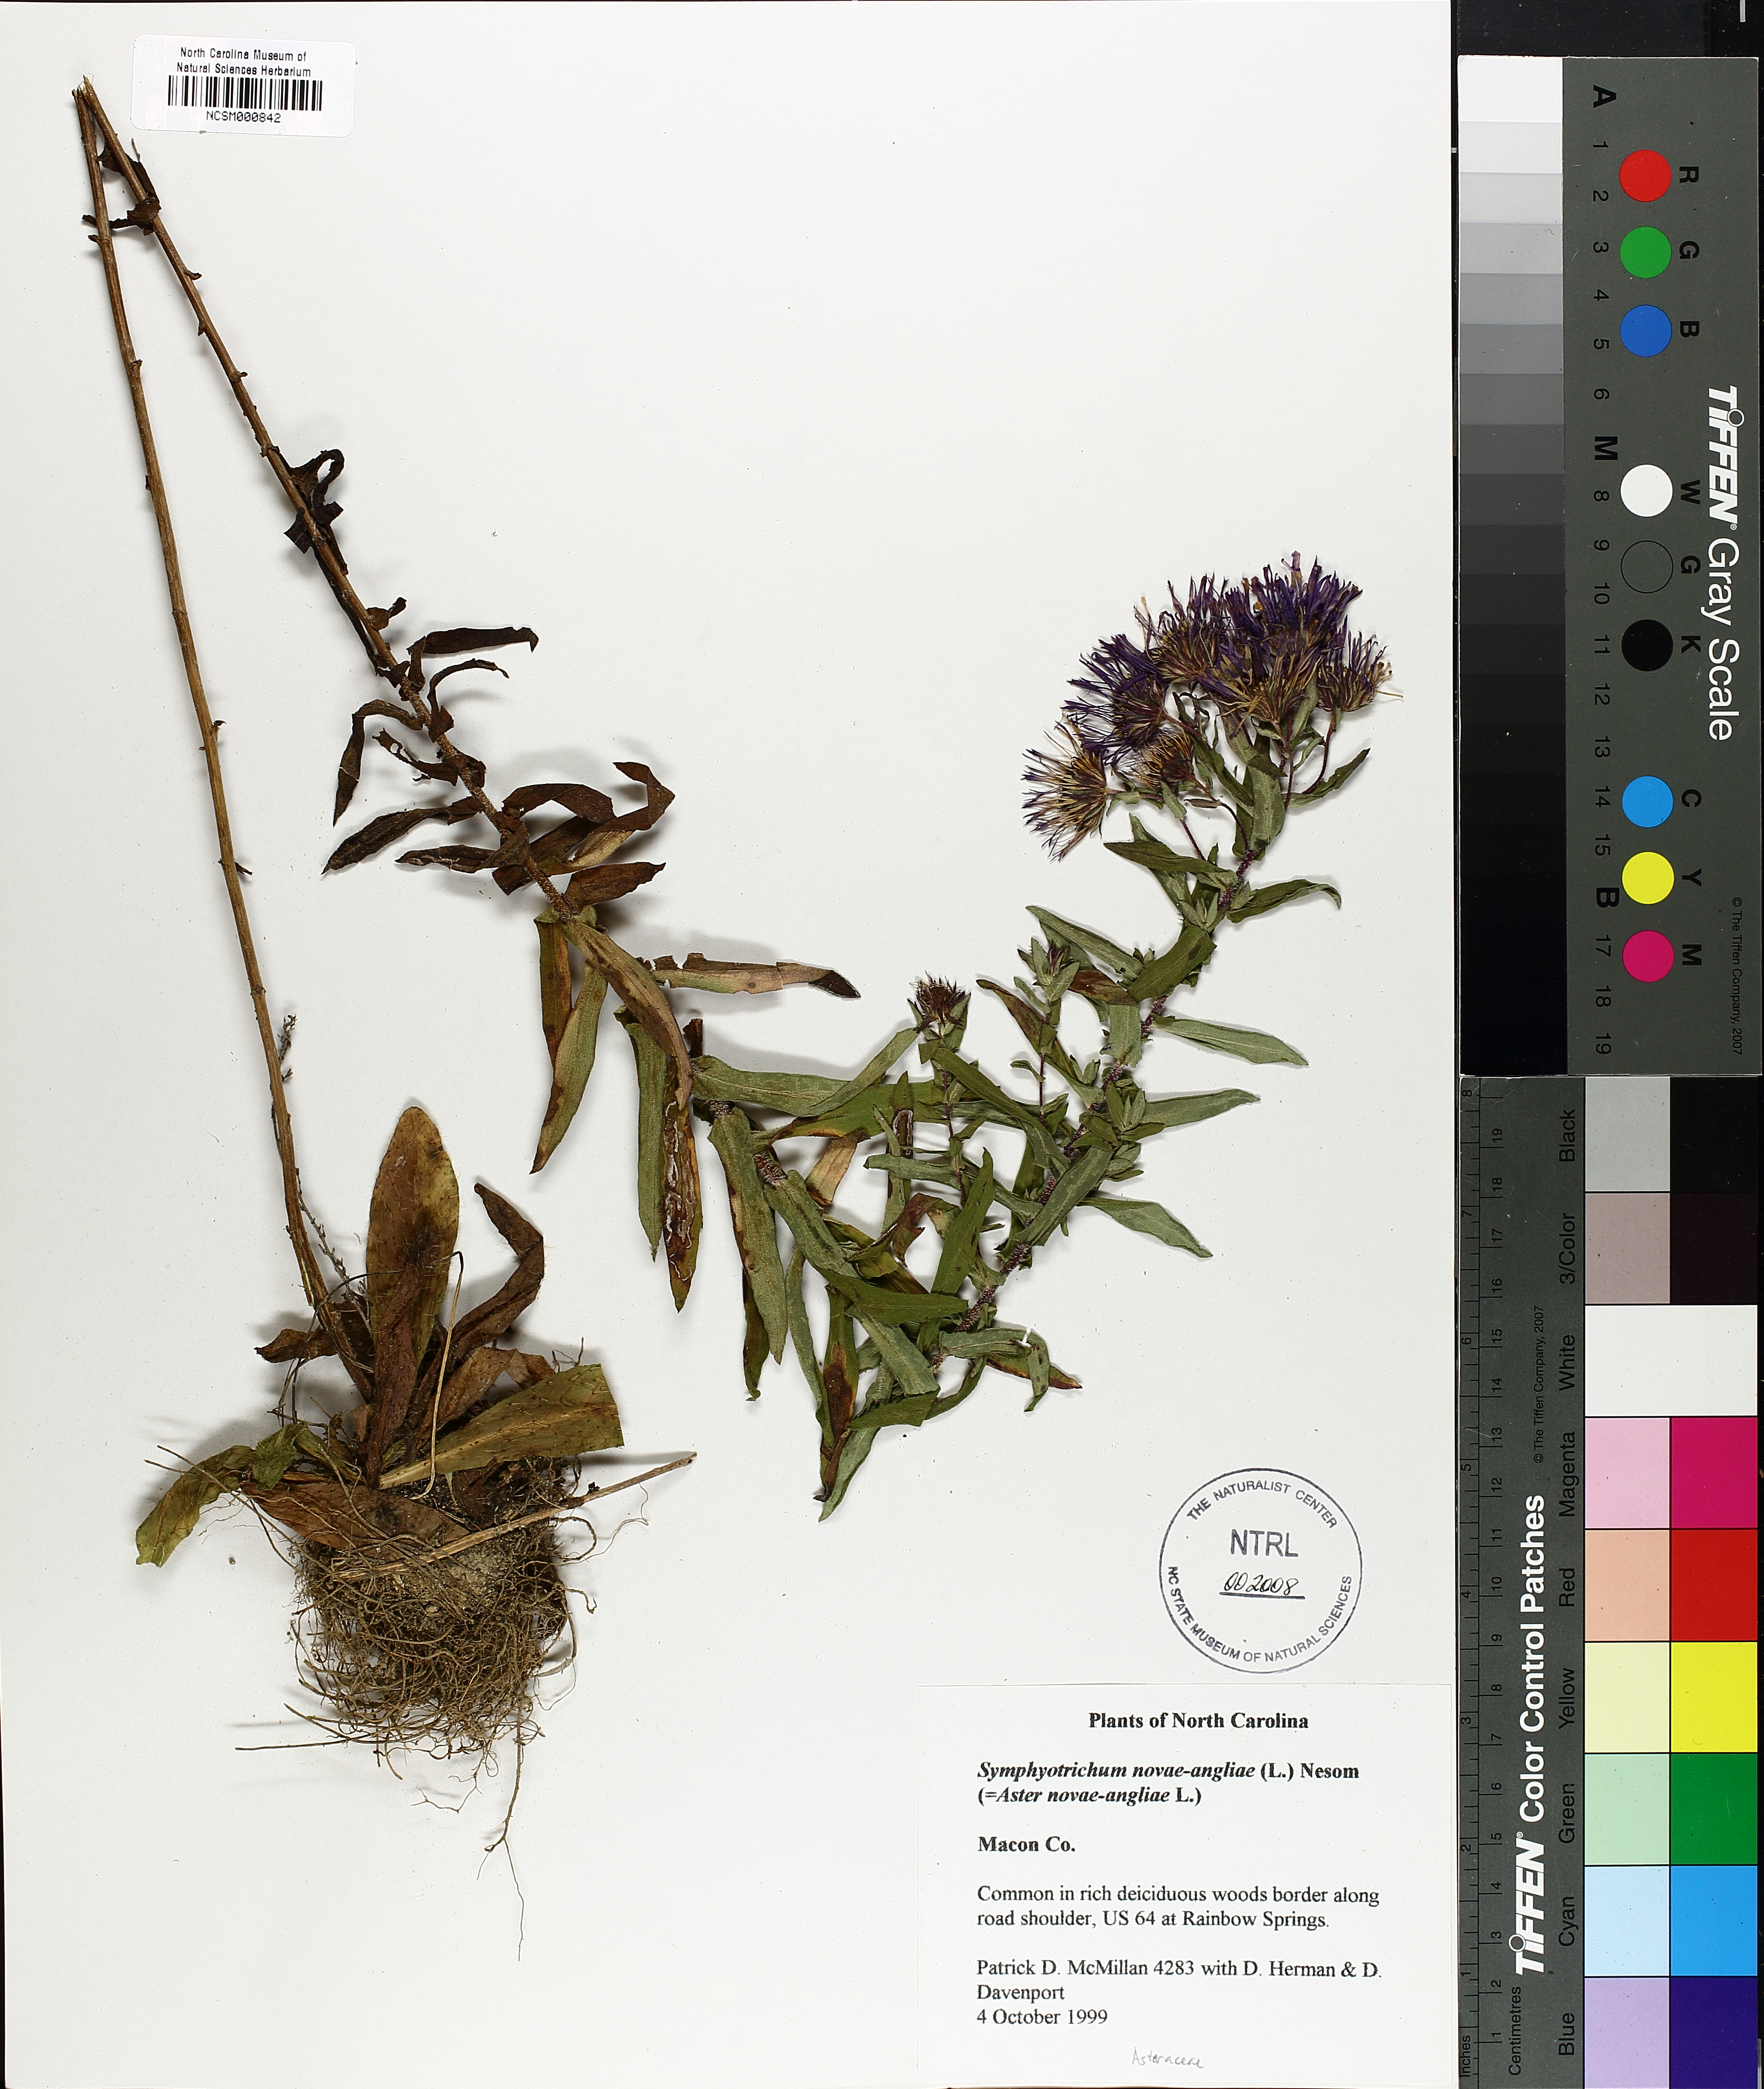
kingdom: Plantae
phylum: Tracheophyta
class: Magnoliopsida
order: Asterales
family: Asteraceae
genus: Symphyotrichum
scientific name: Symphyotrichum novae-angliae
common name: Michaelmas daisy
